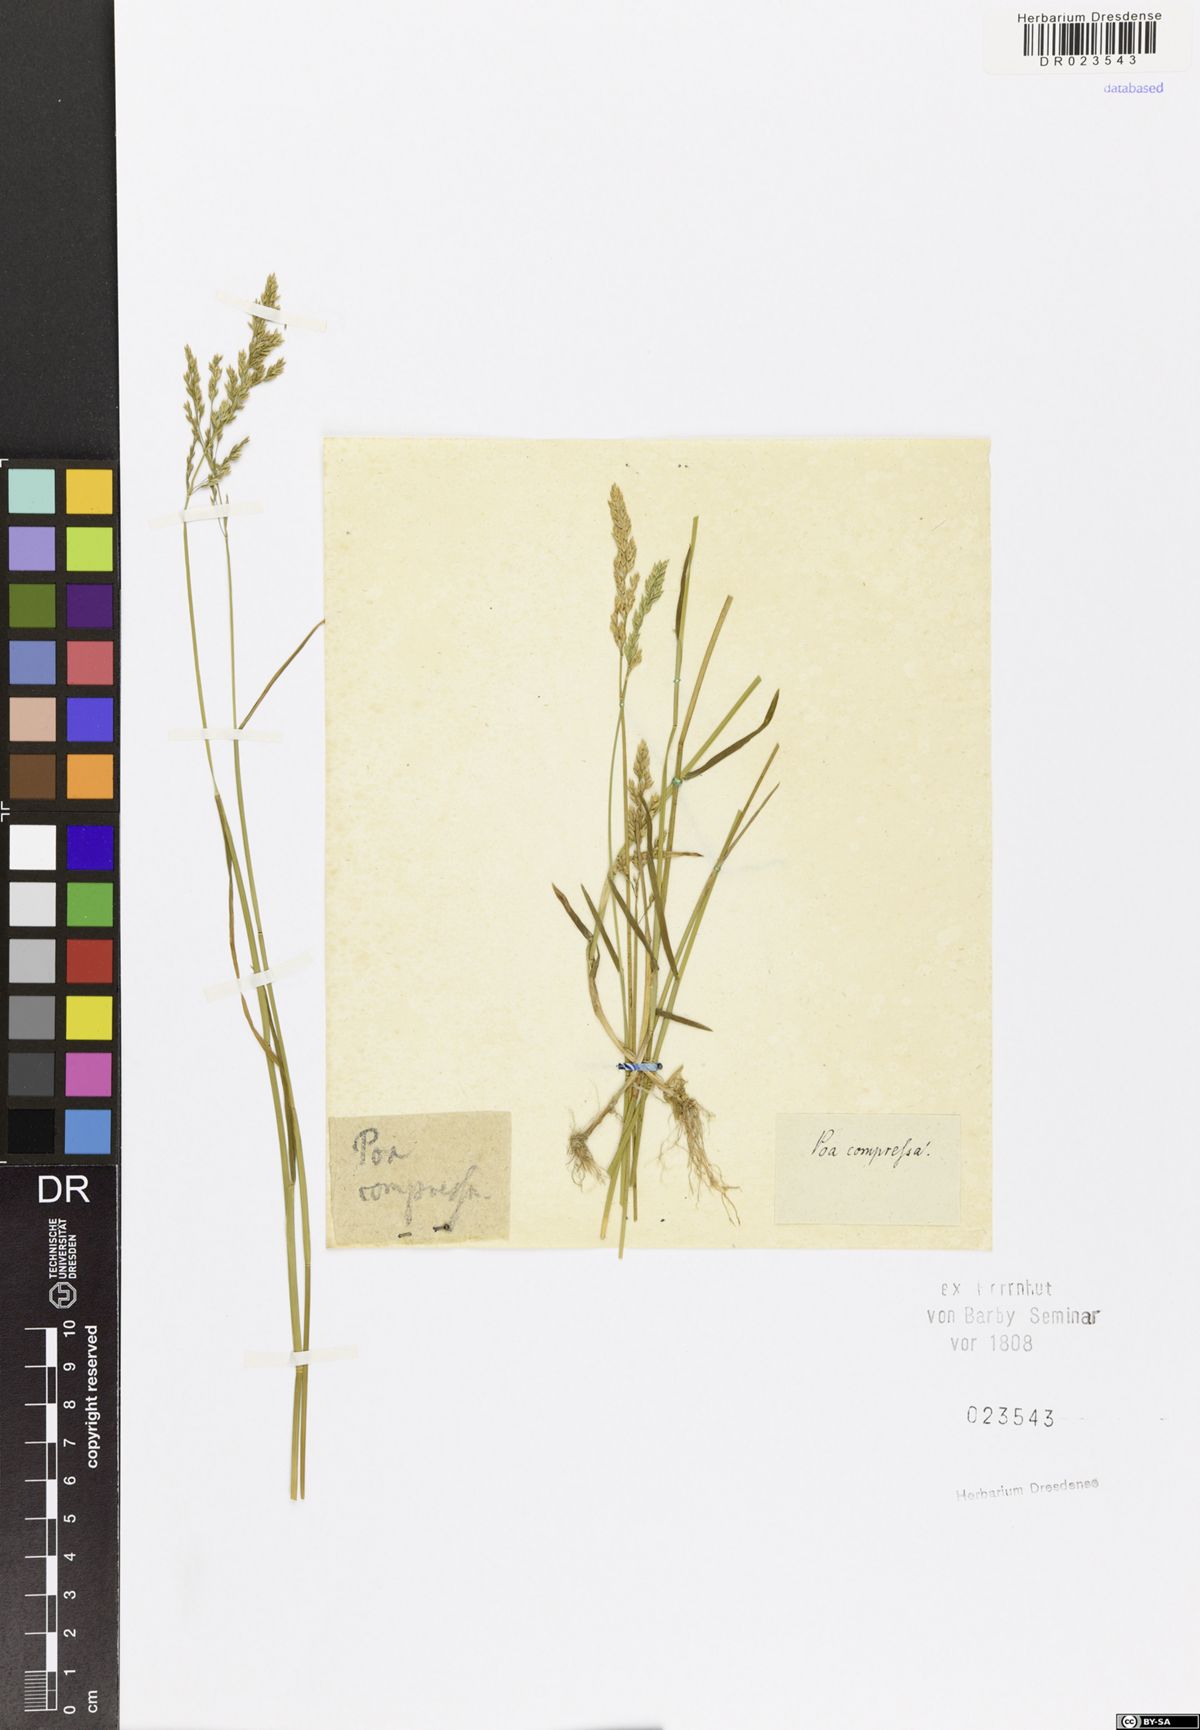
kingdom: Plantae
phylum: Tracheophyta
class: Liliopsida
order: Poales
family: Poaceae
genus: Poa
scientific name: Poa compressa
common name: Canada bluegrass
